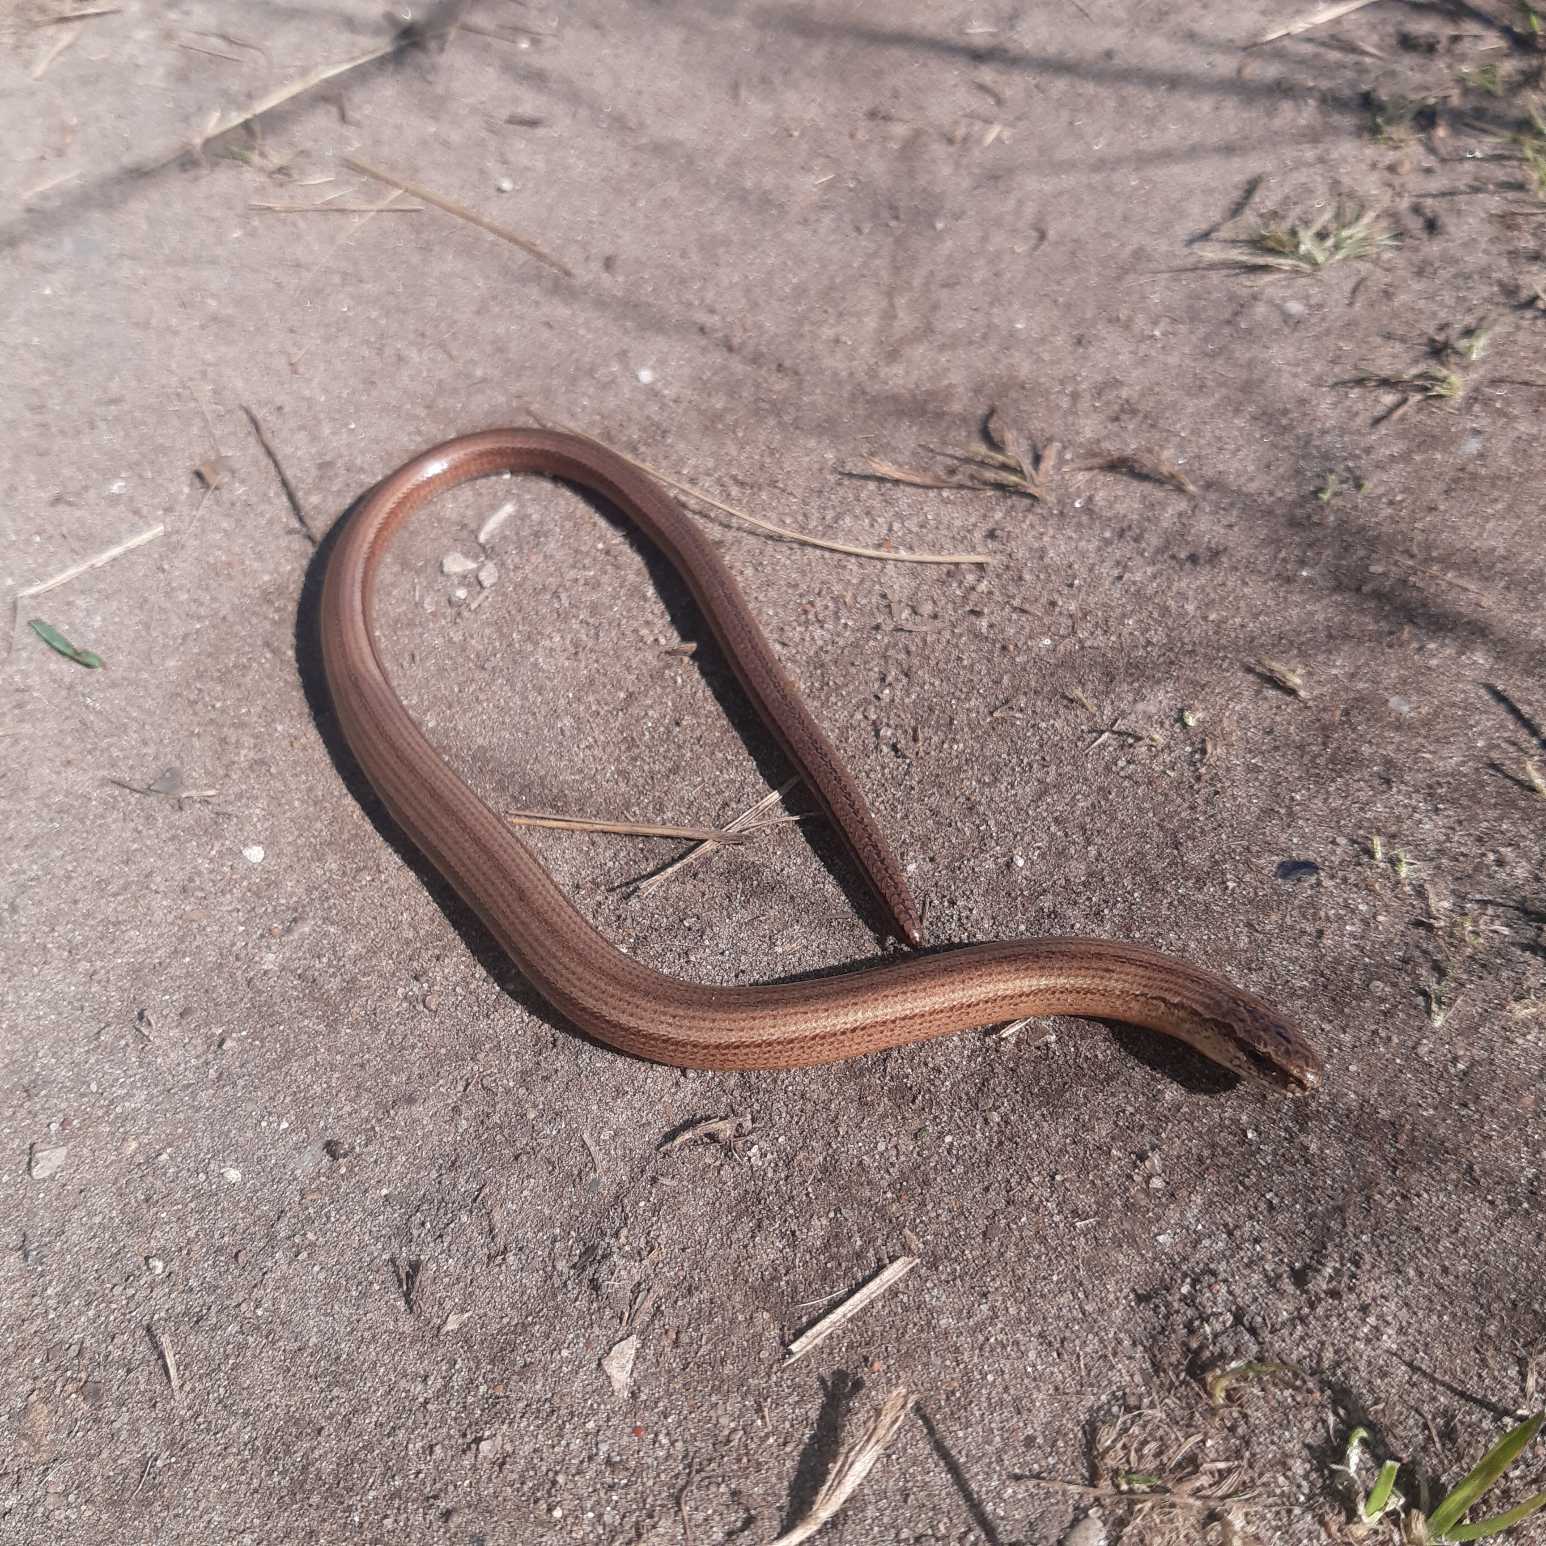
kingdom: Animalia
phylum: Chordata
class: Squamata
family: Anguidae
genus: Anguis
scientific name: Anguis fragilis
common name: Stålorm
